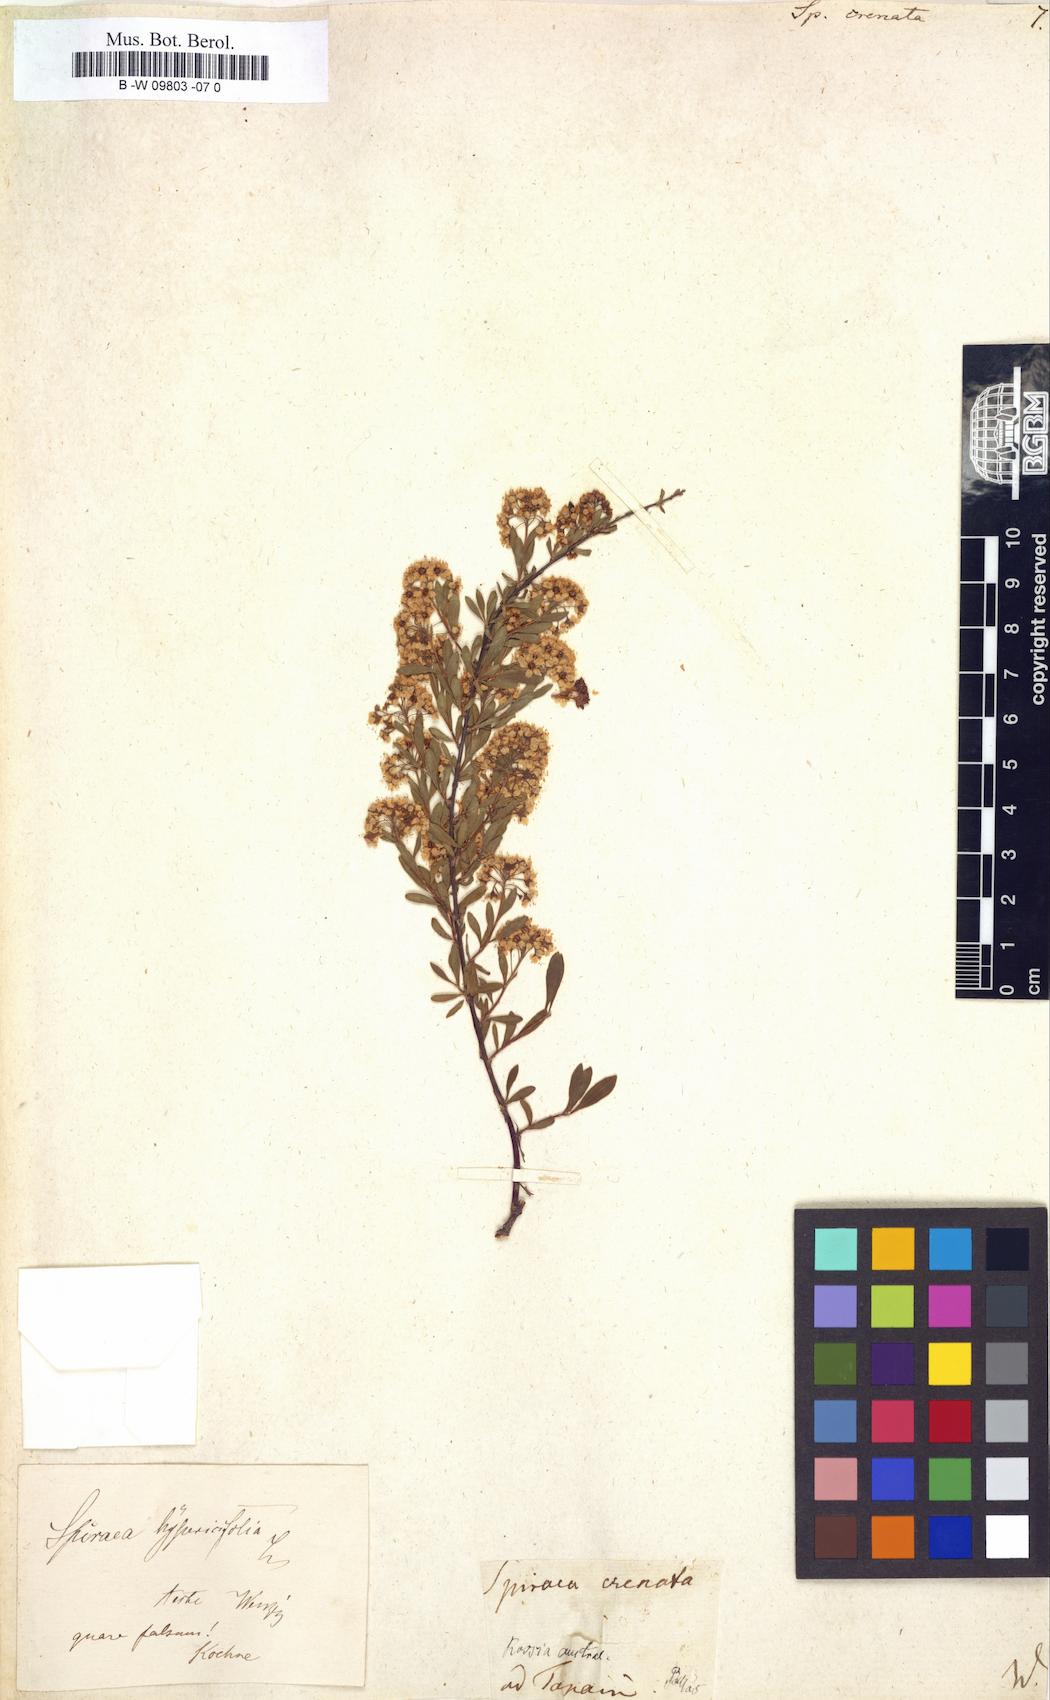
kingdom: Plantae
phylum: Tracheophyta
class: Magnoliopsida
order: Rosales
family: Rosaceae
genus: Spiraea
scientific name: Spiraea crenata
